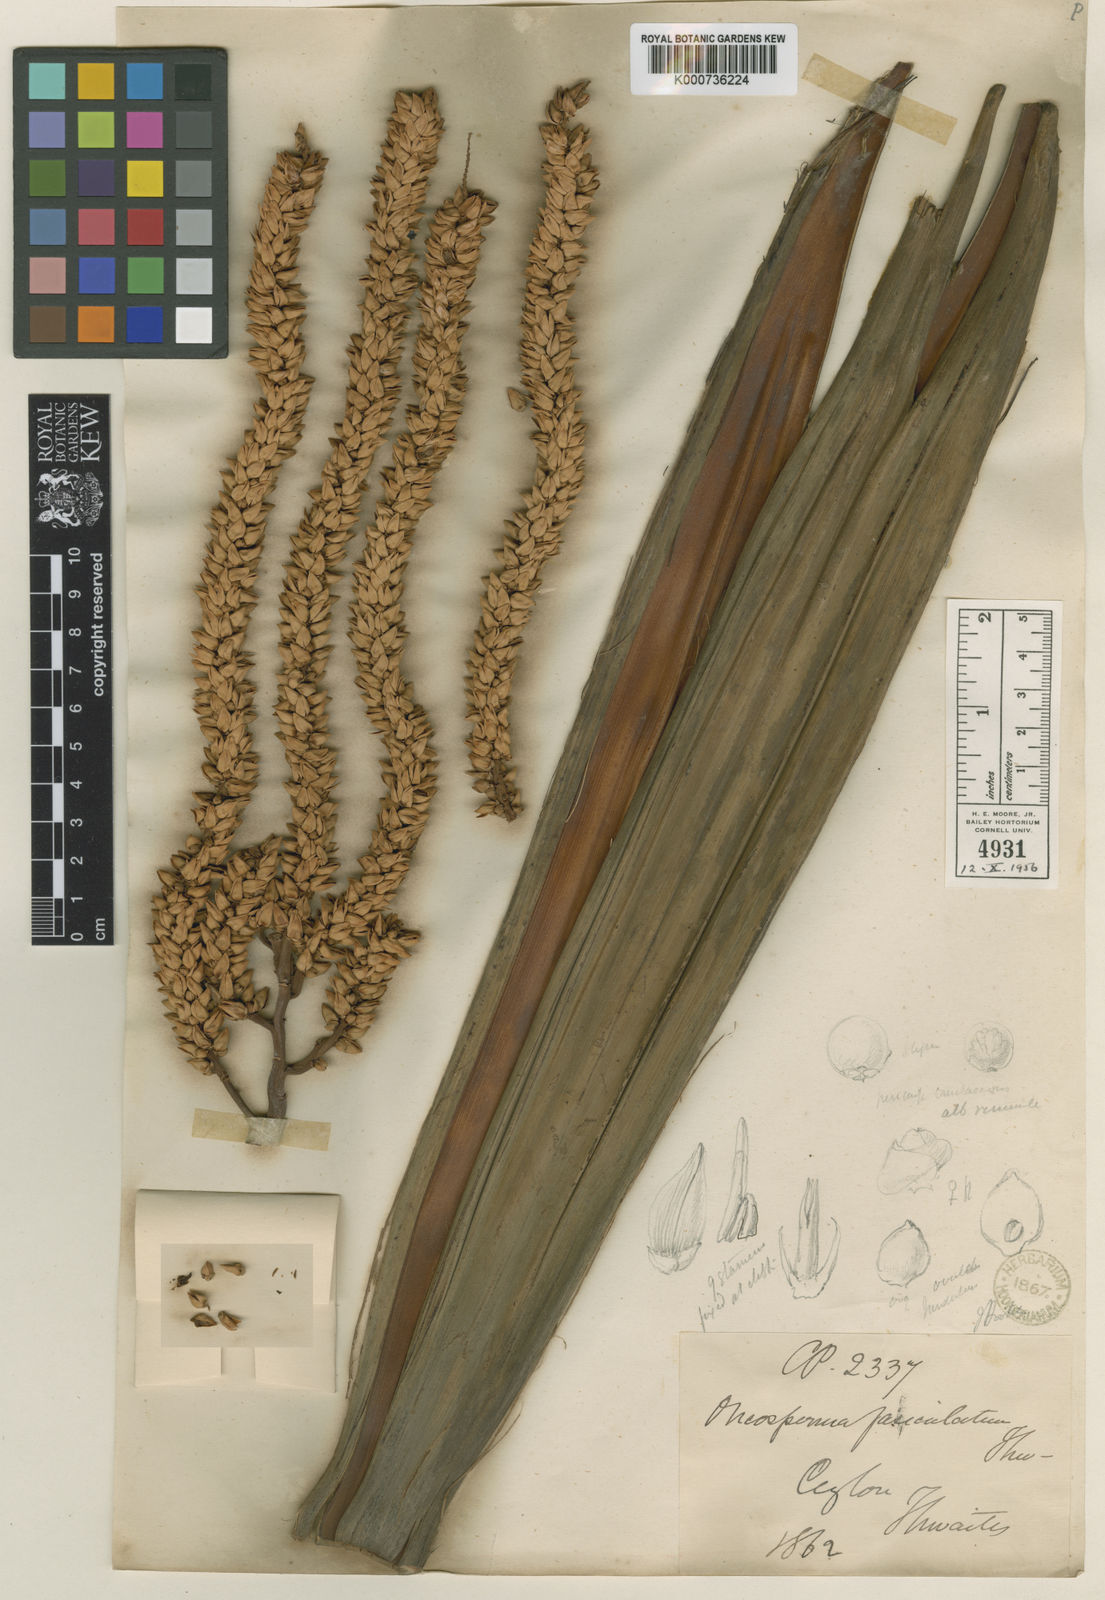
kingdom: Plantae
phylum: Tracheophyta
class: Liliopsida
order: Arecales
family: Arecaceae
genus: Oncosperma
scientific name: Oncosperma fasciculatum
